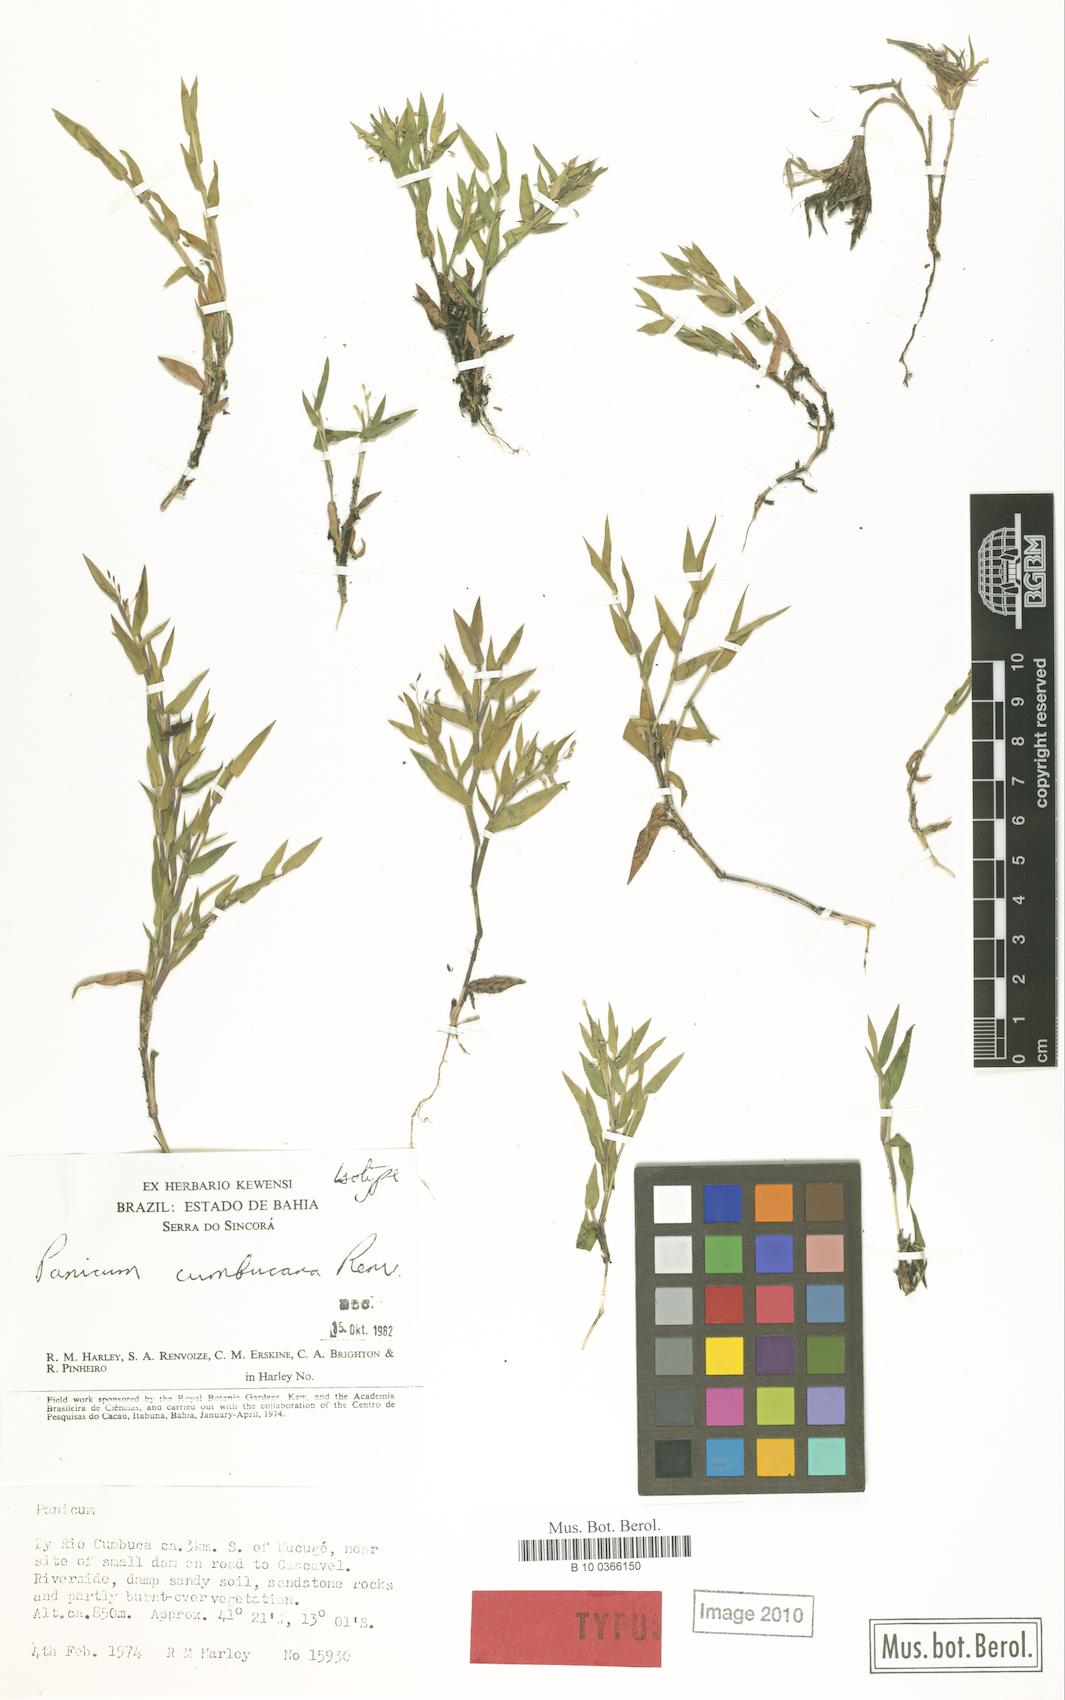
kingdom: Plantae
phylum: Tracheophyta
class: Liliopsida
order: Poales
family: Poaceae
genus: Dichanthelium
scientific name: Dichanthelium cumbucanum
